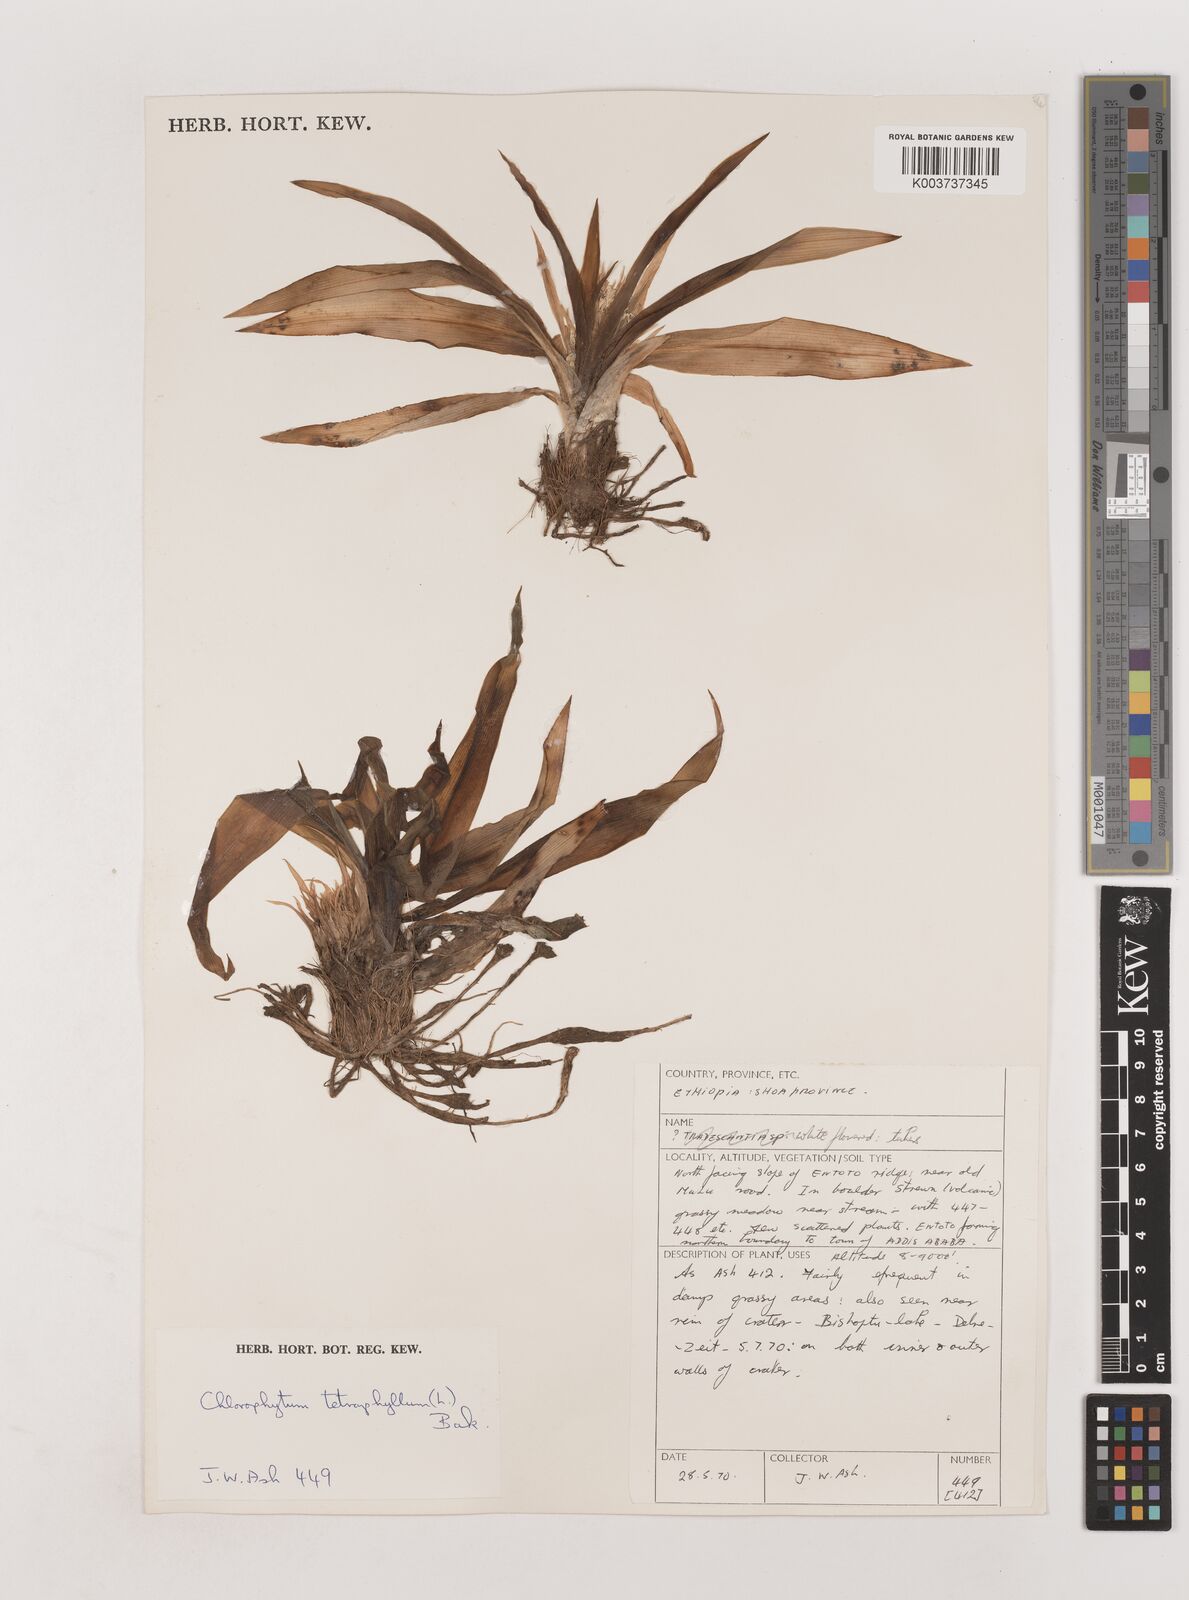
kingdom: Plantae
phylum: Tracheophyta
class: Liliopsida
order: Asparagales
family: Asparagaceae
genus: Chlorophytum
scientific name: Chlorophytum tetraphyllum
